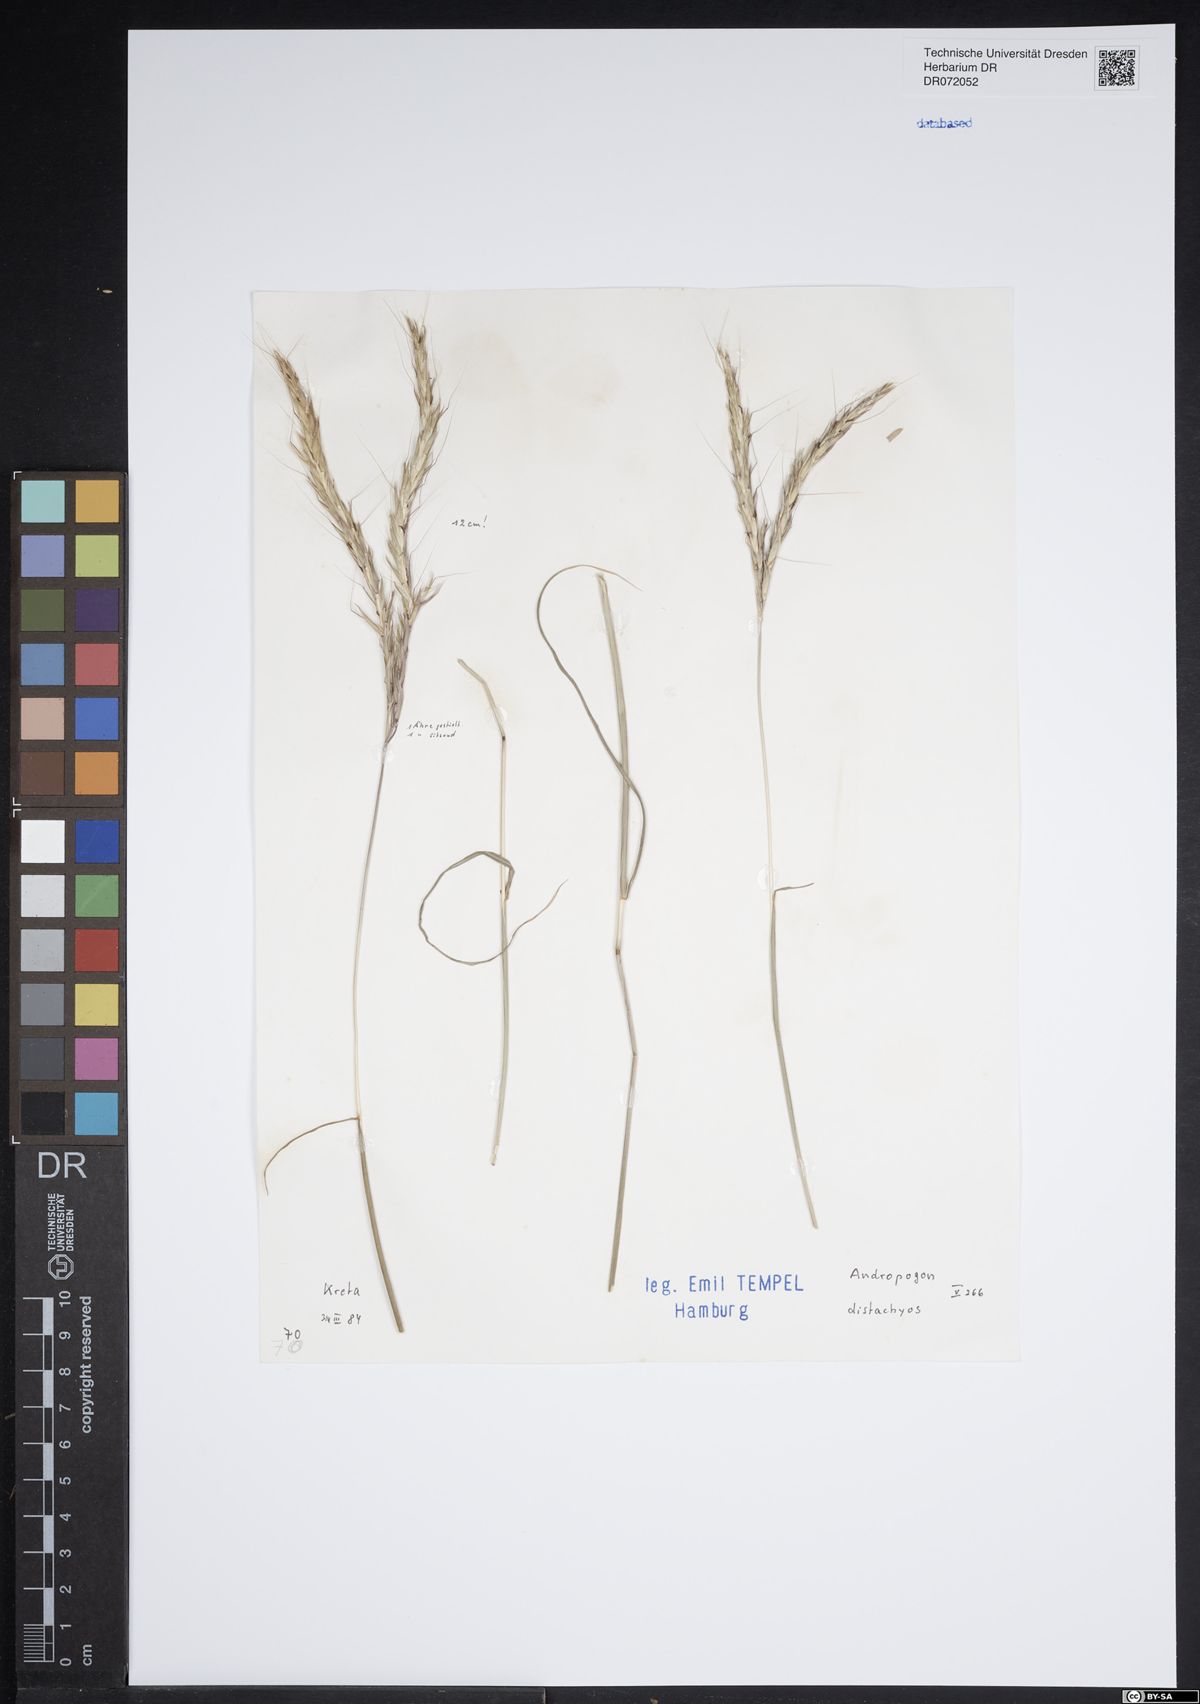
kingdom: Plantae
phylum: Tracheophyta
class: Liliopsida
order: Poales
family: Poaceae
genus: Andropogon
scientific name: Andropogon distachyos
